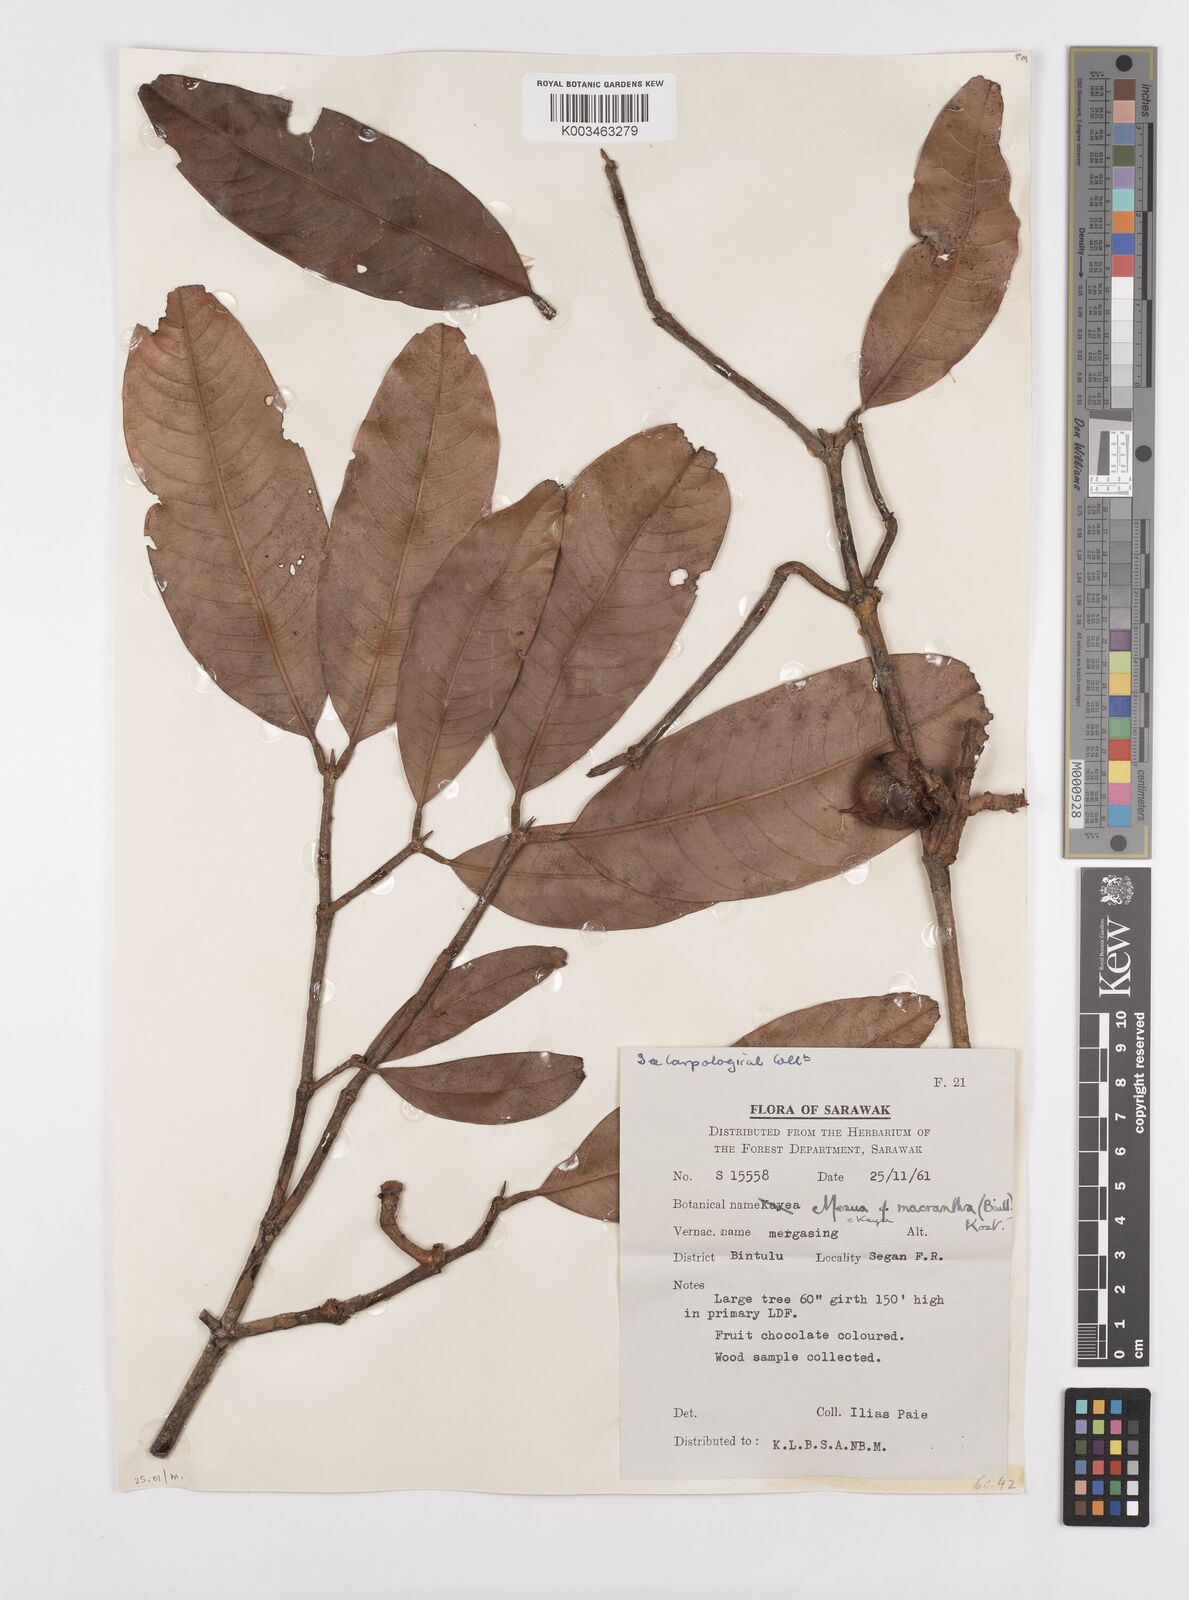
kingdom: Plantae
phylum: Tracheophyta
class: Magnoliopsida
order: Malpighiales
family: Calophyllaceae
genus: Kayea
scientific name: Kayea macrantha
